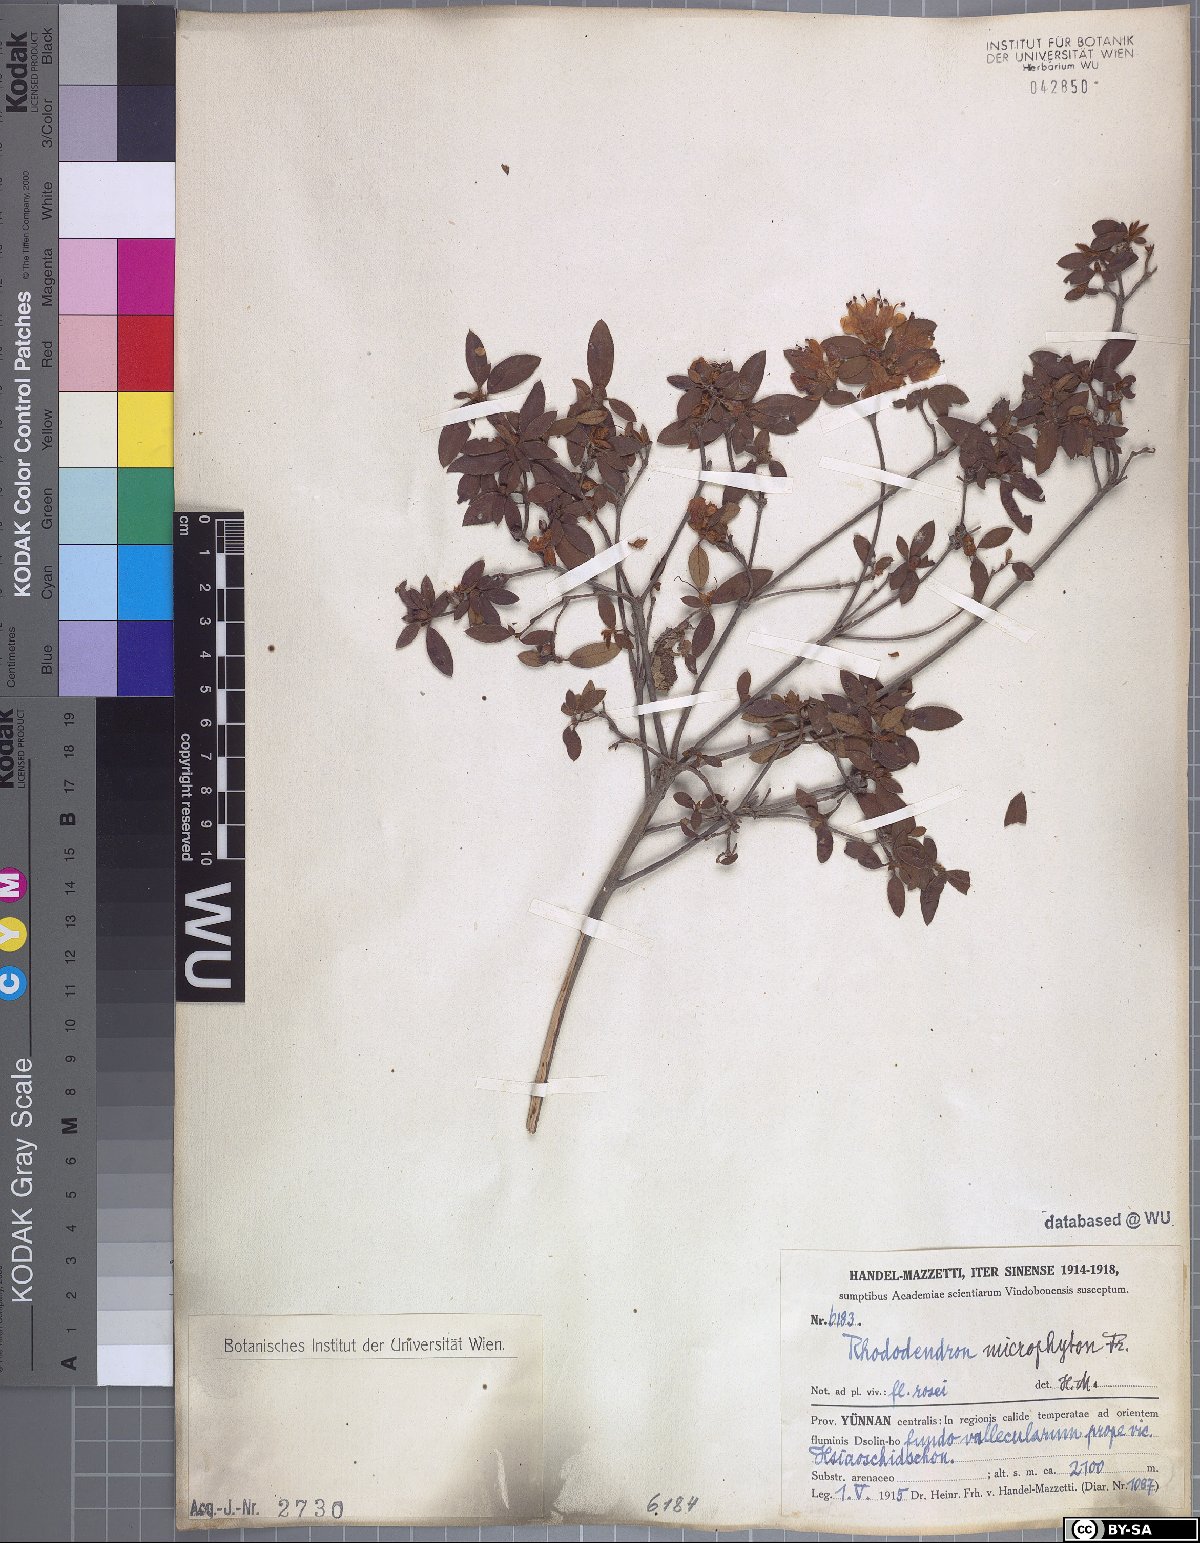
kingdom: Plantae
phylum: Tracheophyta
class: Magnoliopsida
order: Ericales
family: Ericaceae
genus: Rhododendron
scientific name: Rhododendron microphyton
